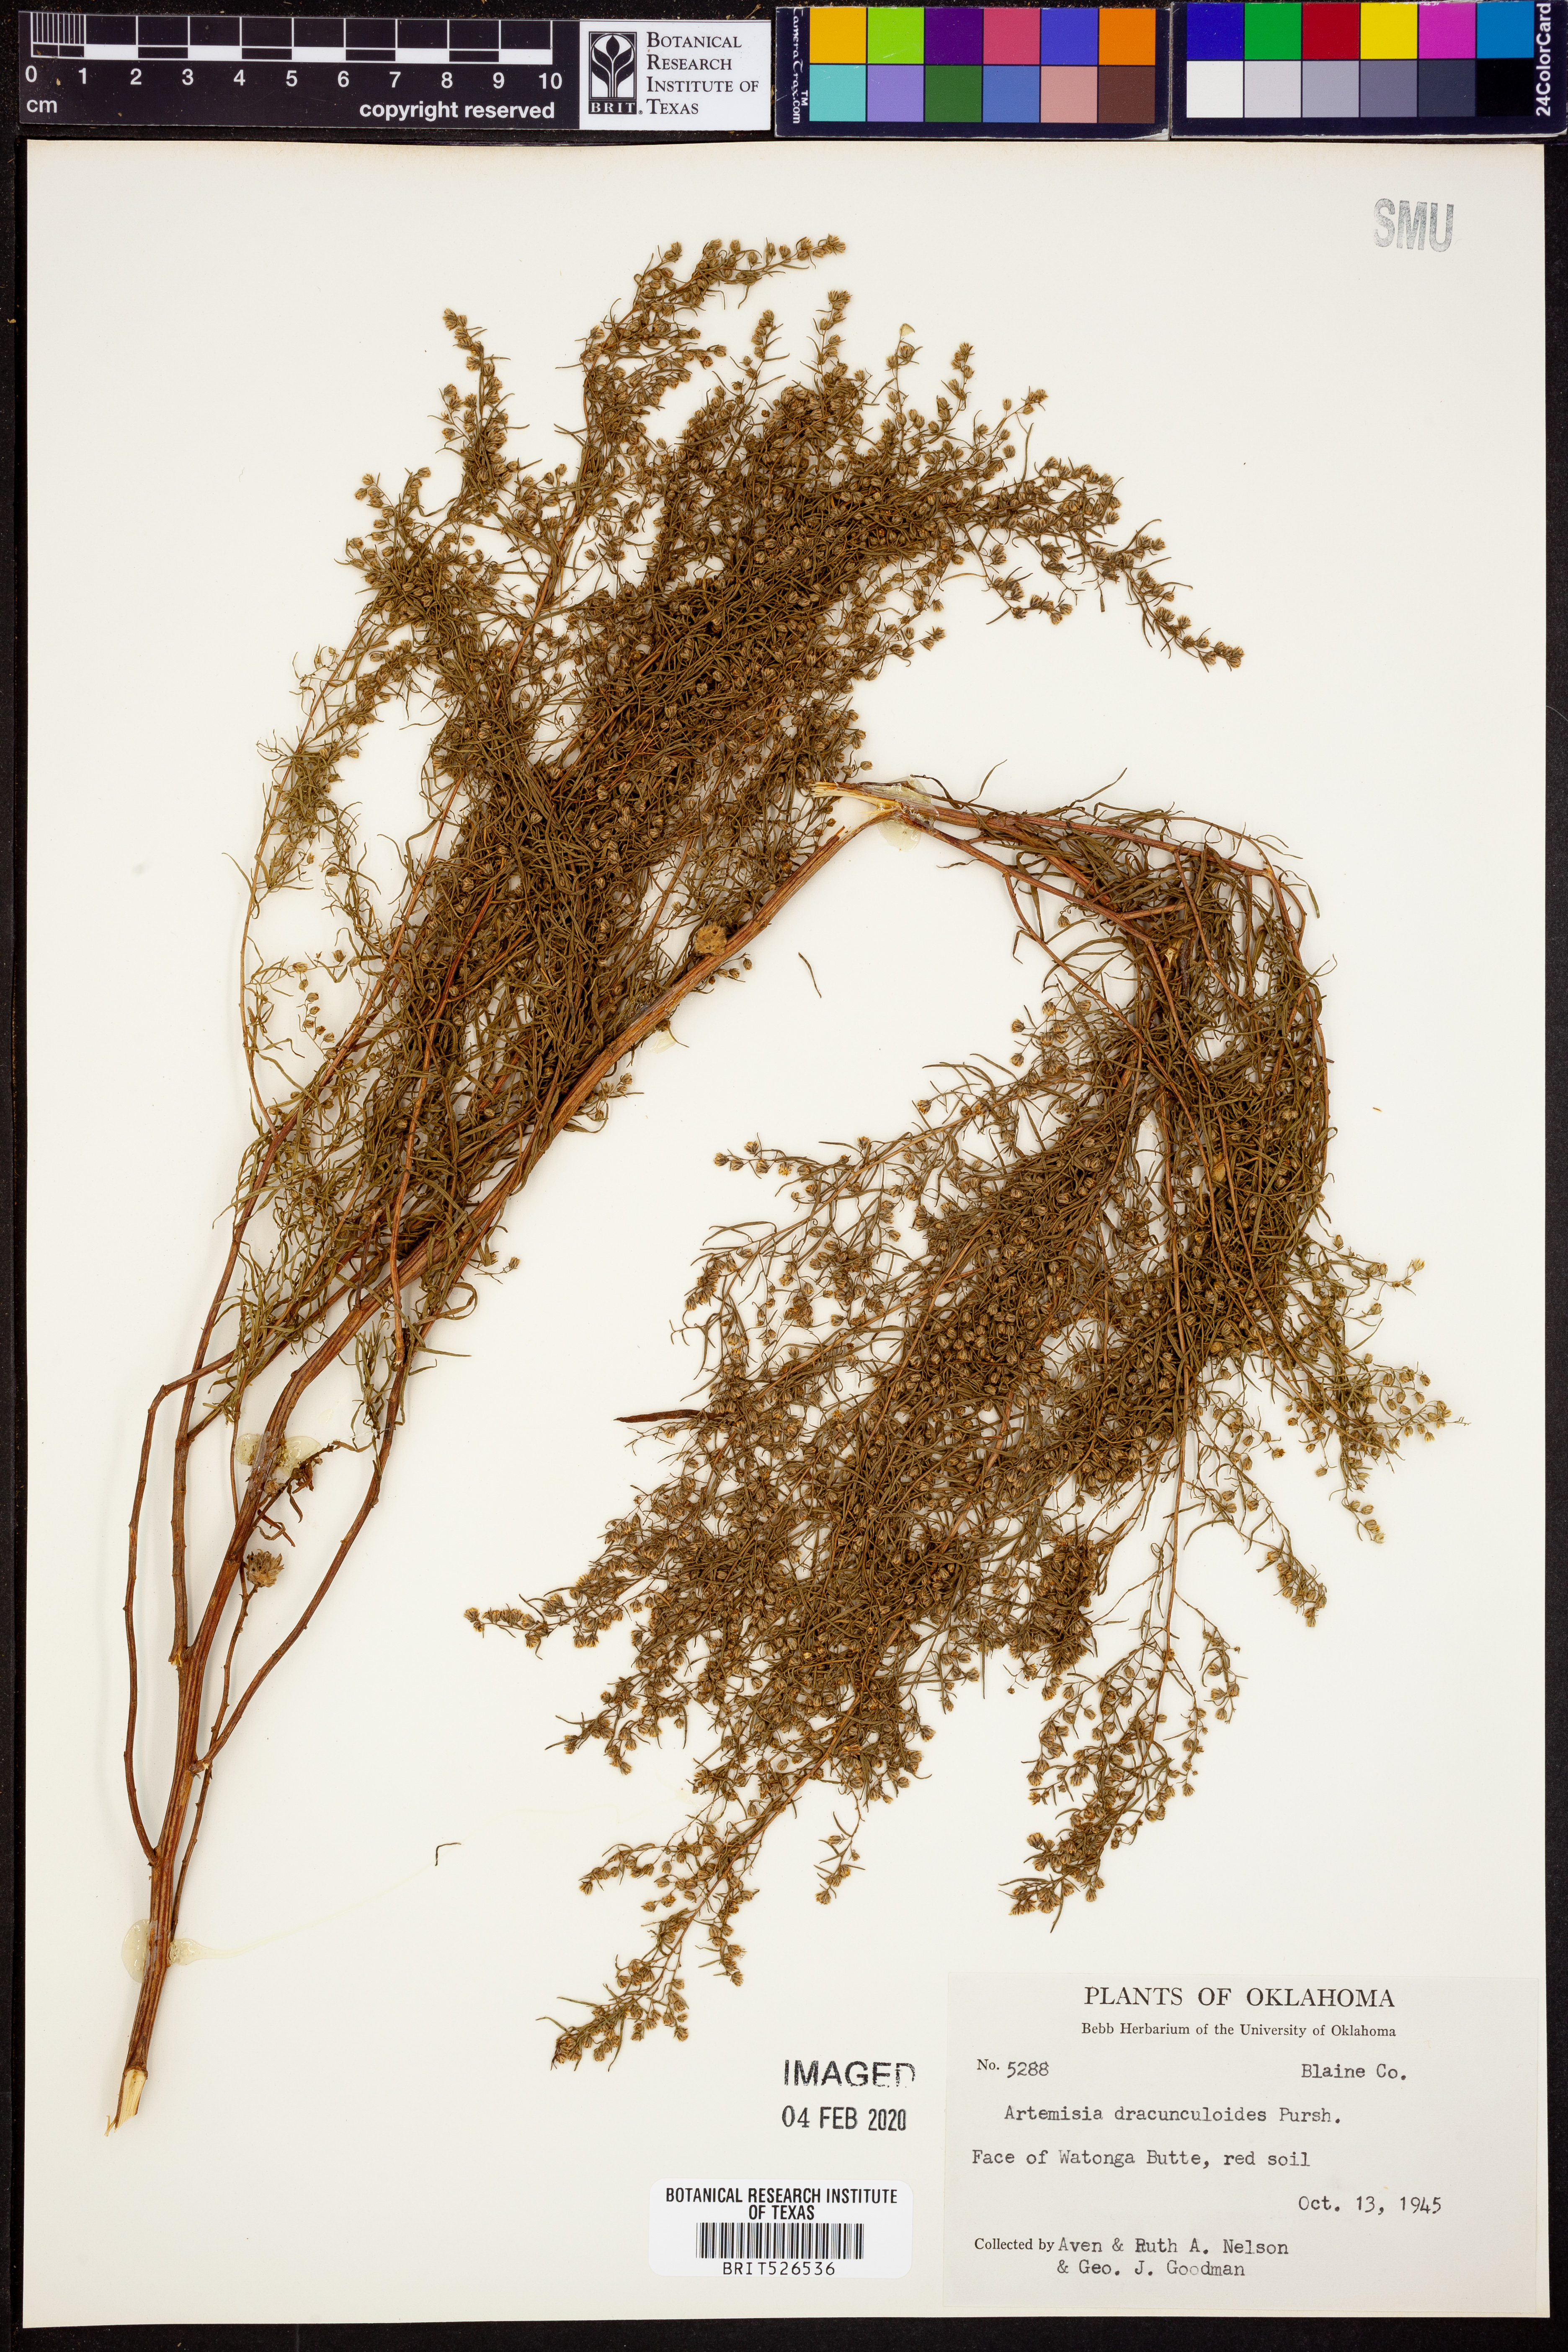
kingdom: Plantae
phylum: Tracheophyta
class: Magnoliopsida
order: Asterales
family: Asteraceae
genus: Artemisia
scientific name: Artemisia dracunculus
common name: Tarragon
